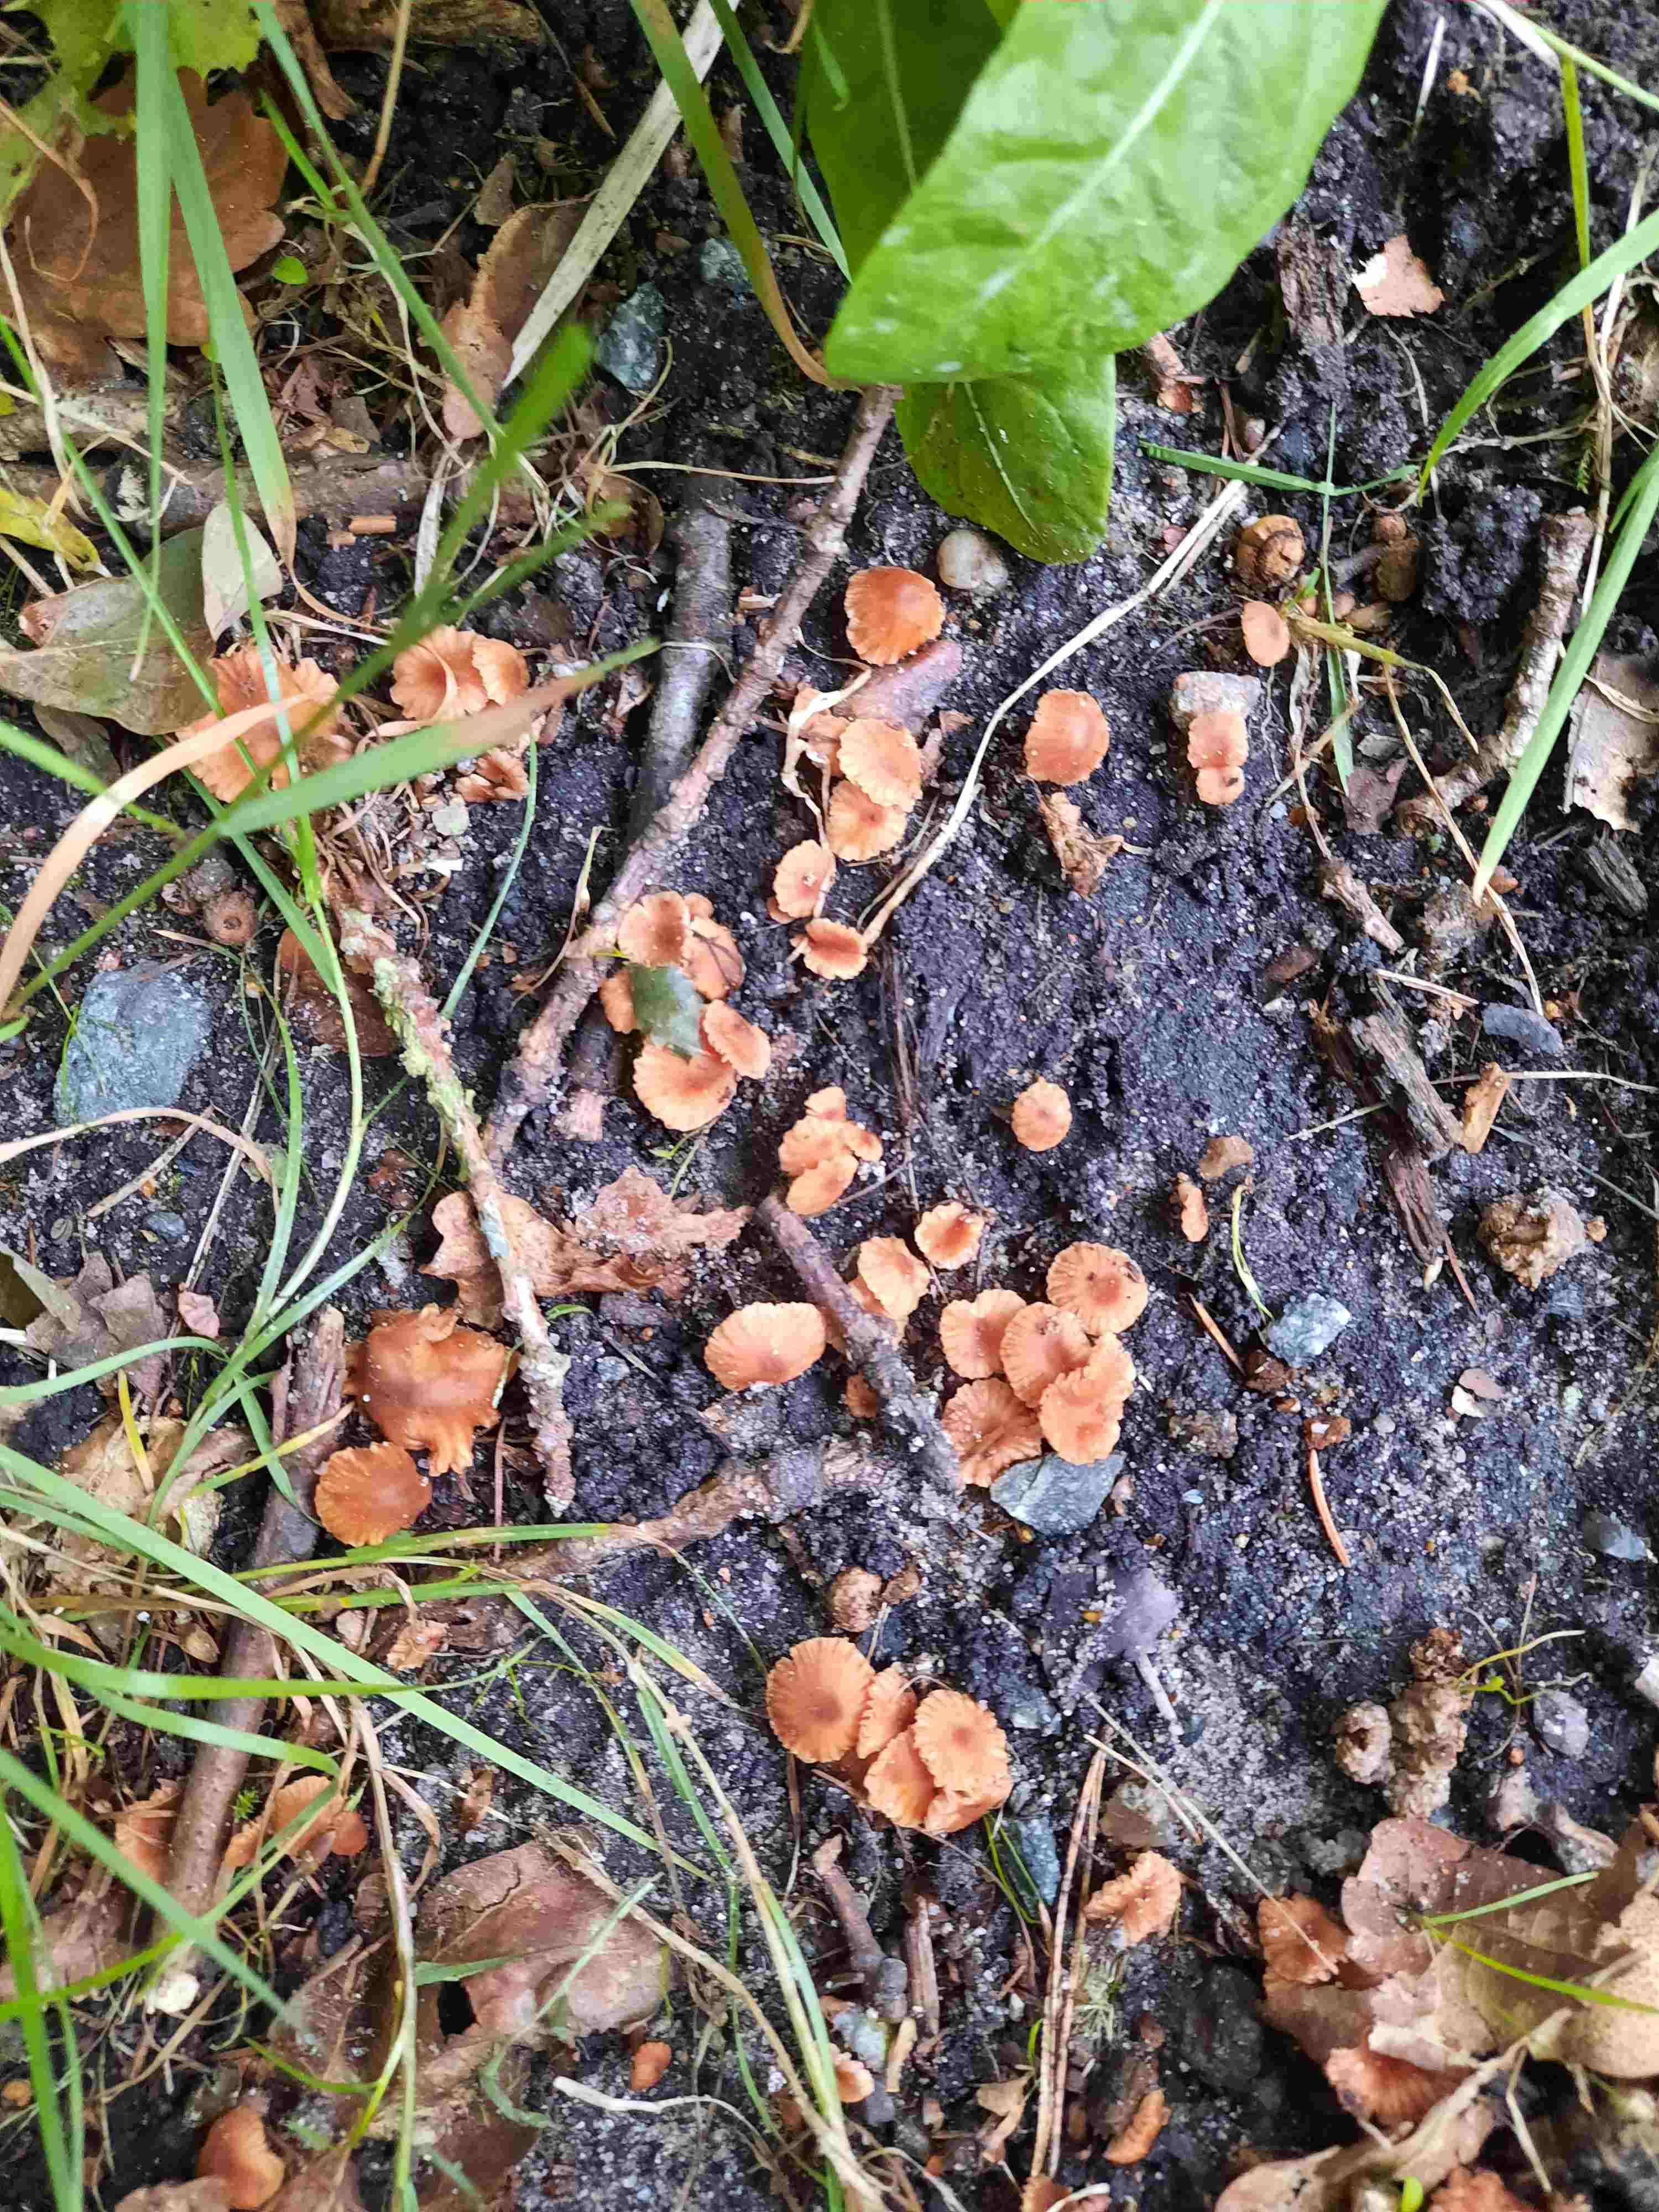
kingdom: Fungi
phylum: Basidiomycota
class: Agaricomycetes
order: Agaricales
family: Hydnangiaceae
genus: Laccaria
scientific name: Laccaria tortilis
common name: krybende ametysthat
